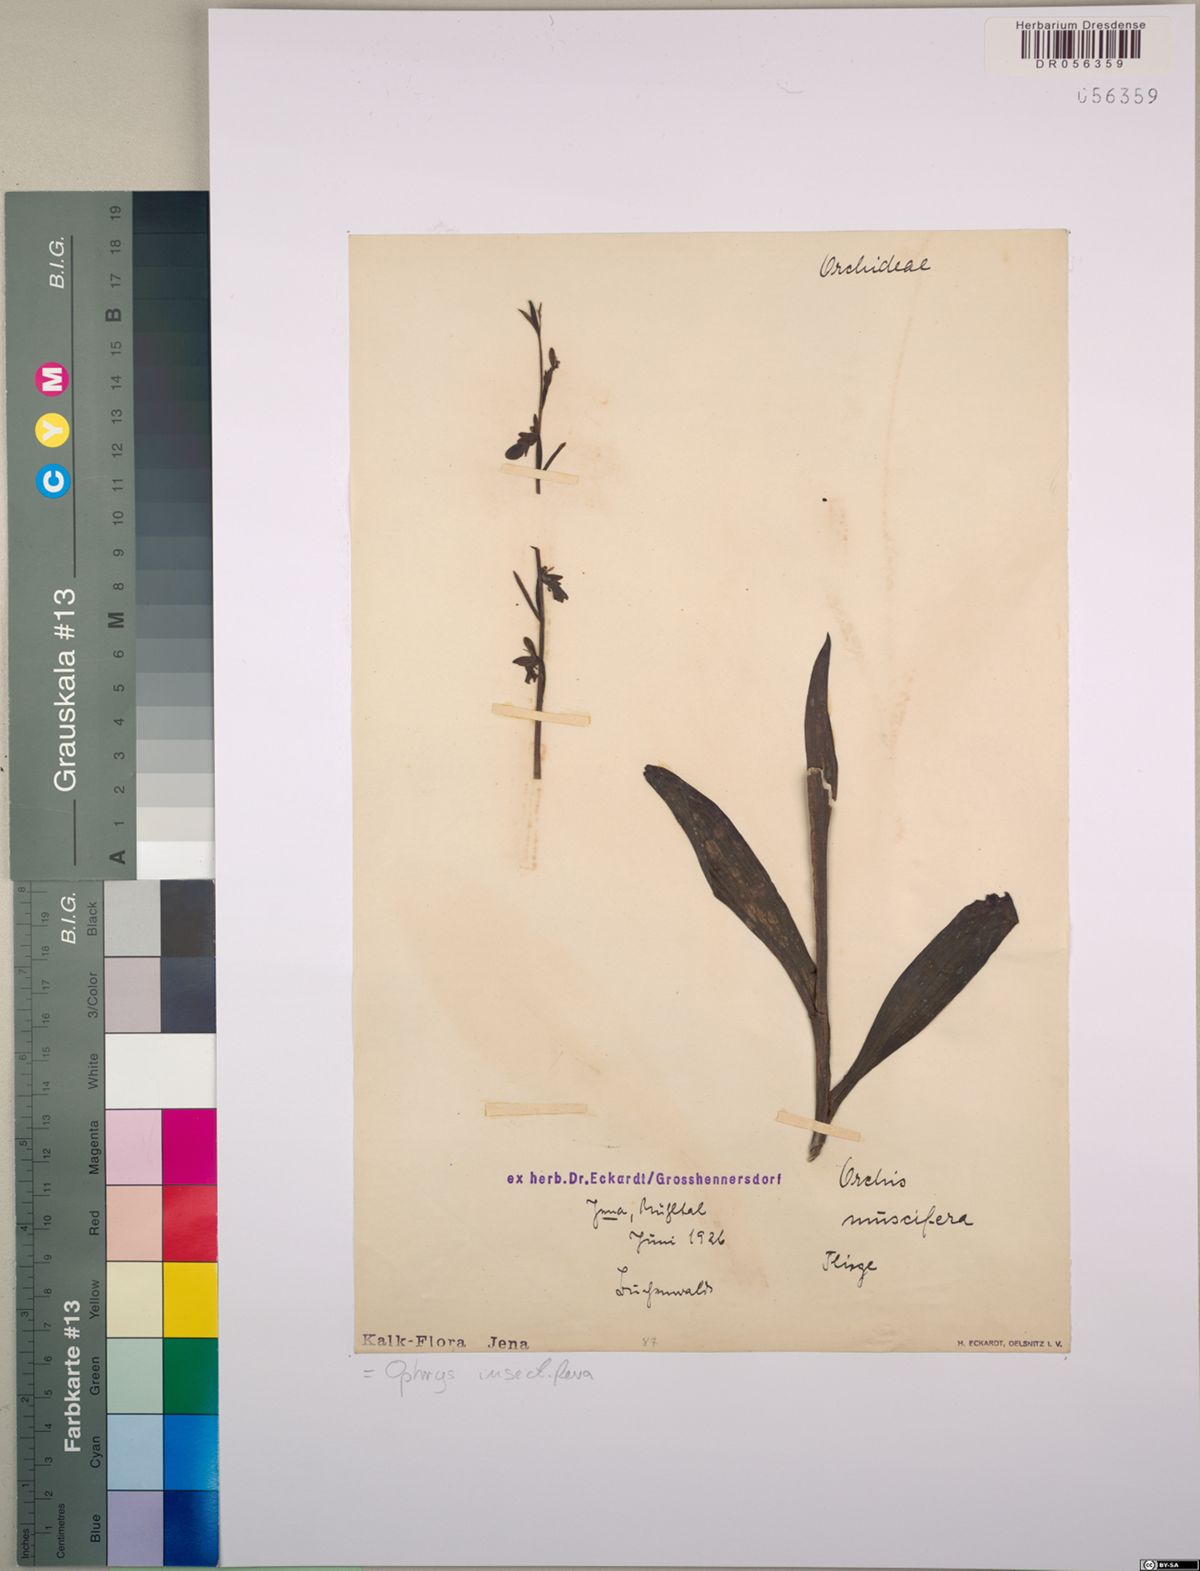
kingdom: Plantae
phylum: Tracheophyta
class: Liliopsida
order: Asparagales
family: Orchidaceae
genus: Ophrys
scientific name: Ophrys insectifera
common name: Fly orchid
